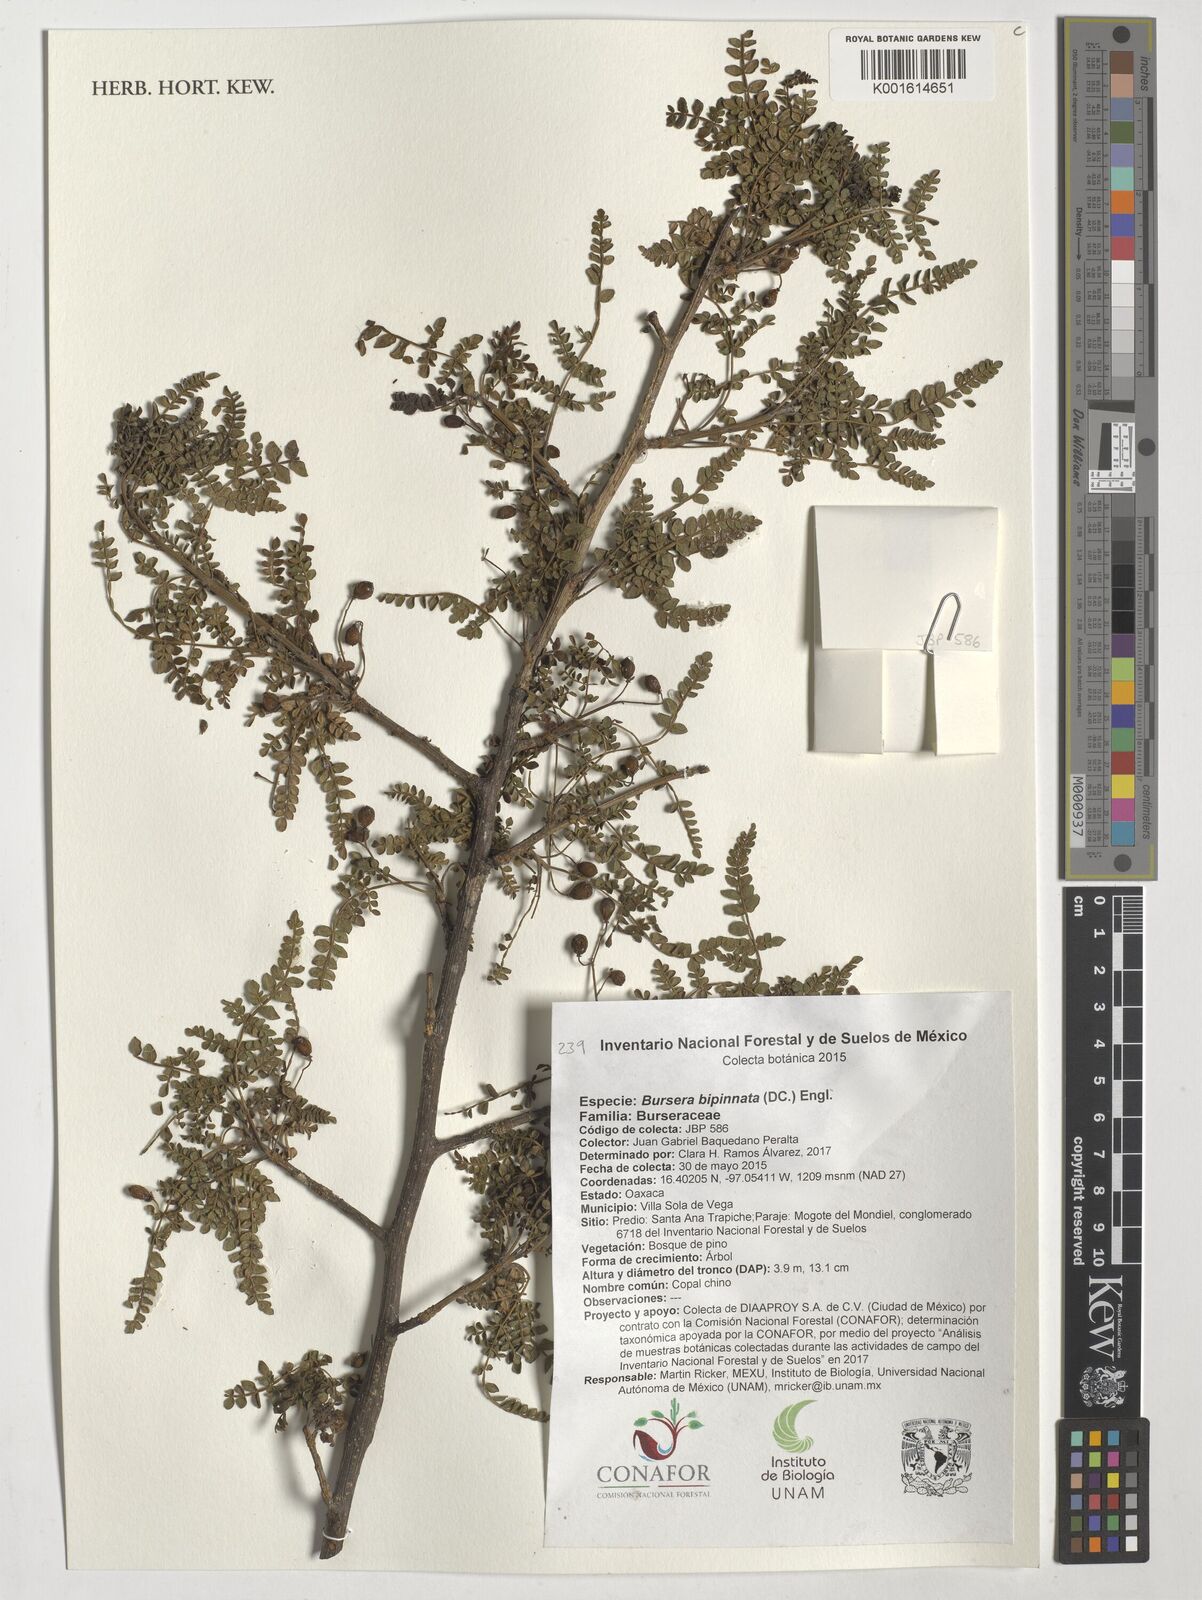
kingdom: Plantae
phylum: Tracheophyta
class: Magnoliopsida
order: Sapindales
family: Burseraceae
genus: Bursera
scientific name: Bursera bipinnata
